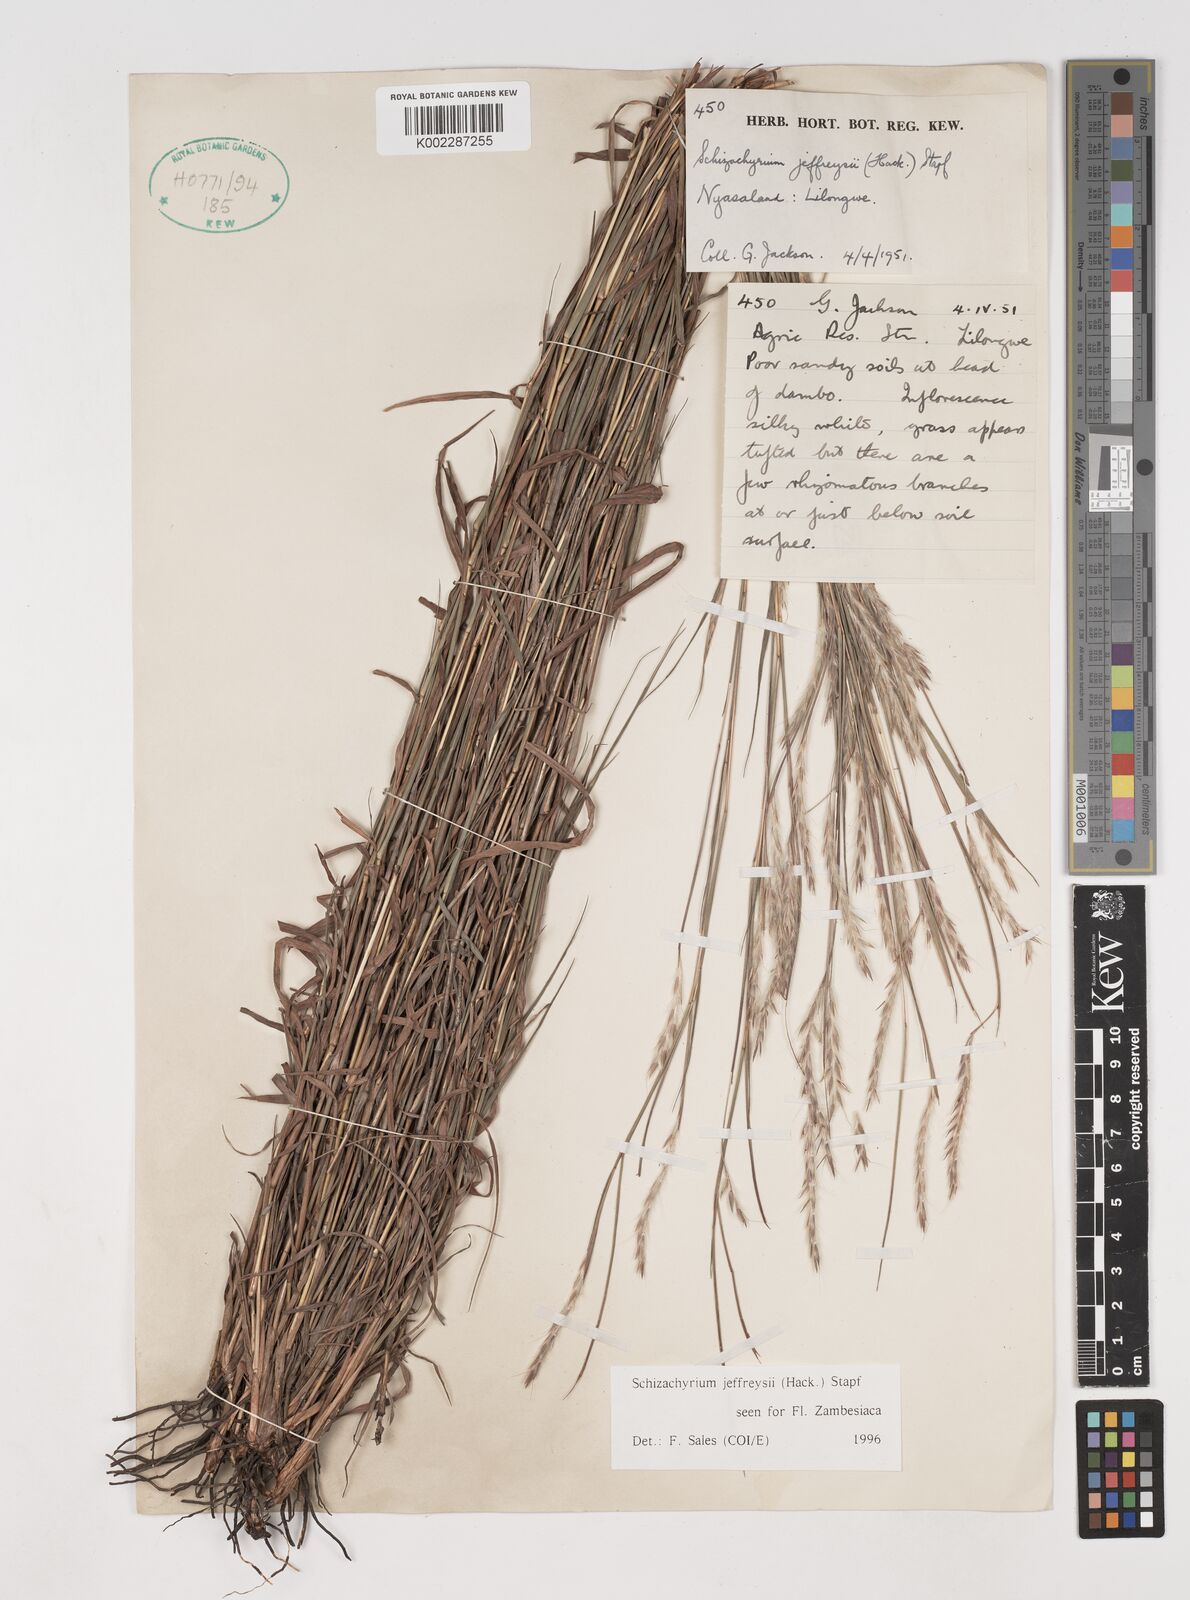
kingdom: Plantae
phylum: Tracheophyta
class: Liliopsida
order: Poales
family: Poaceae
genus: Schizachyrium
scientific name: Schizachyrium jeffreysii
